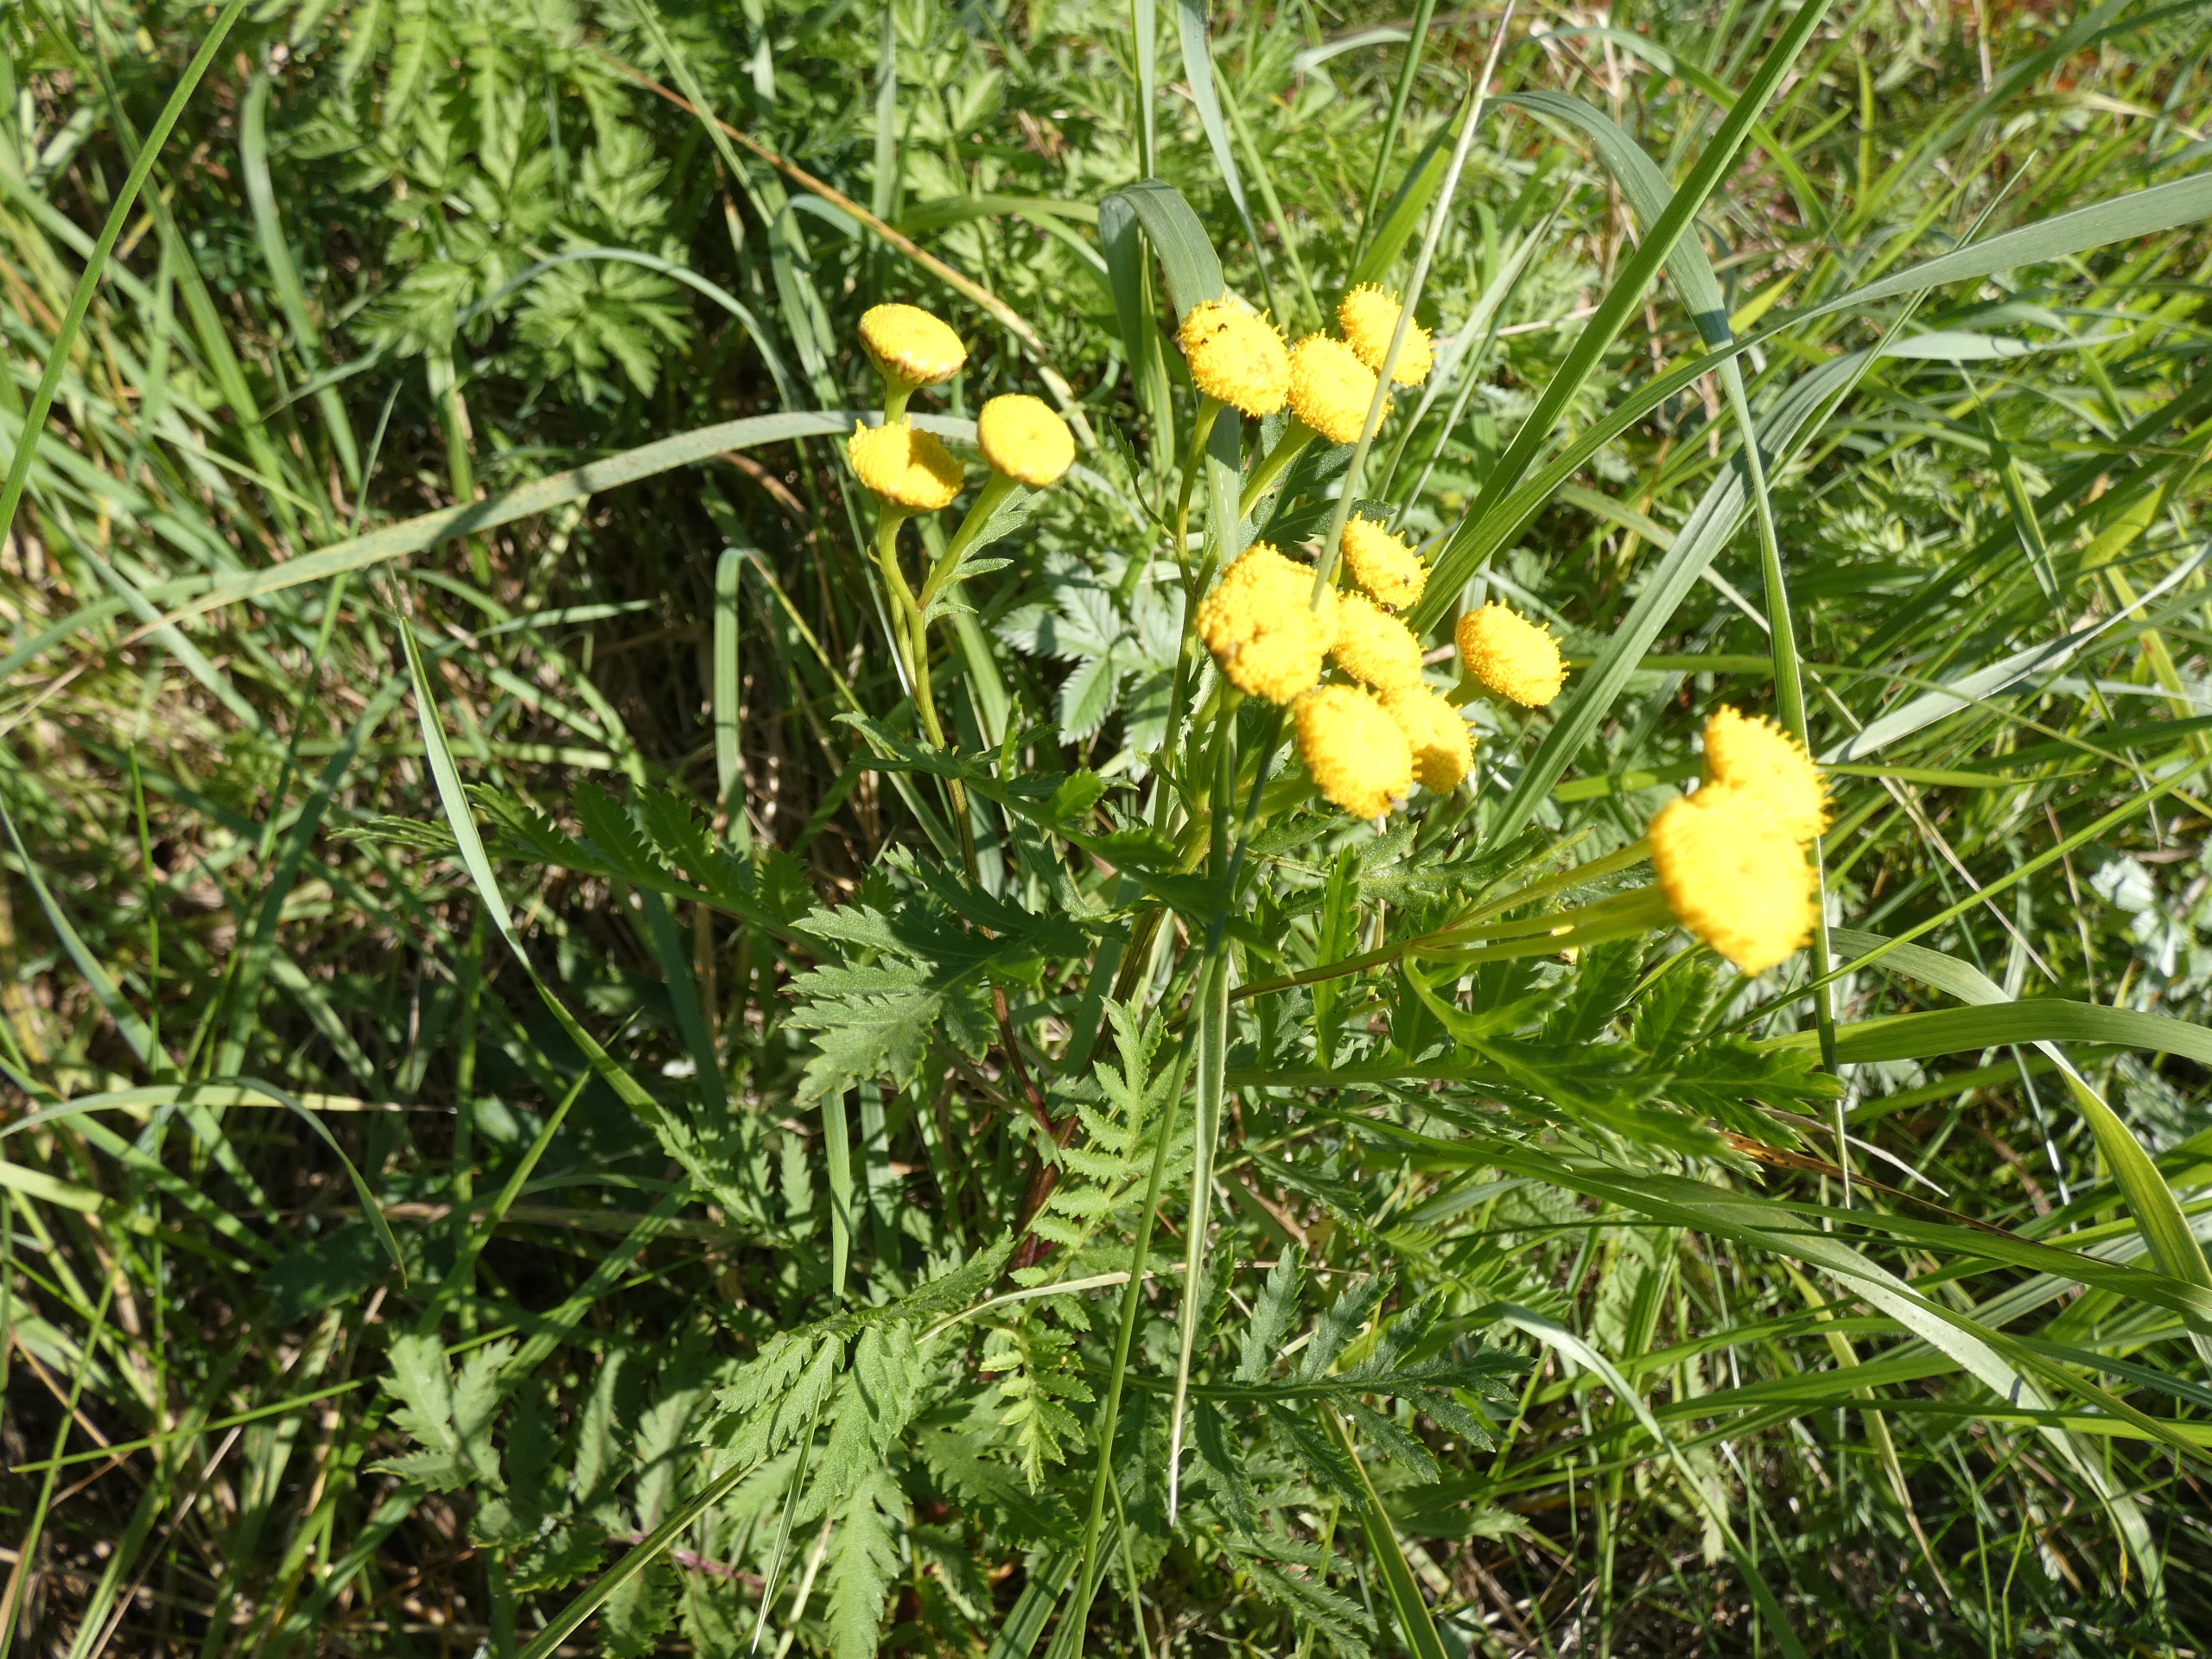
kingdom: Plantae
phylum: Tracheophyta
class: Magnoliopsida
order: Asterales
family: Asteraceae
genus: Tanacetum
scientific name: Tanacetum vulgare
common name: Rejnfan
